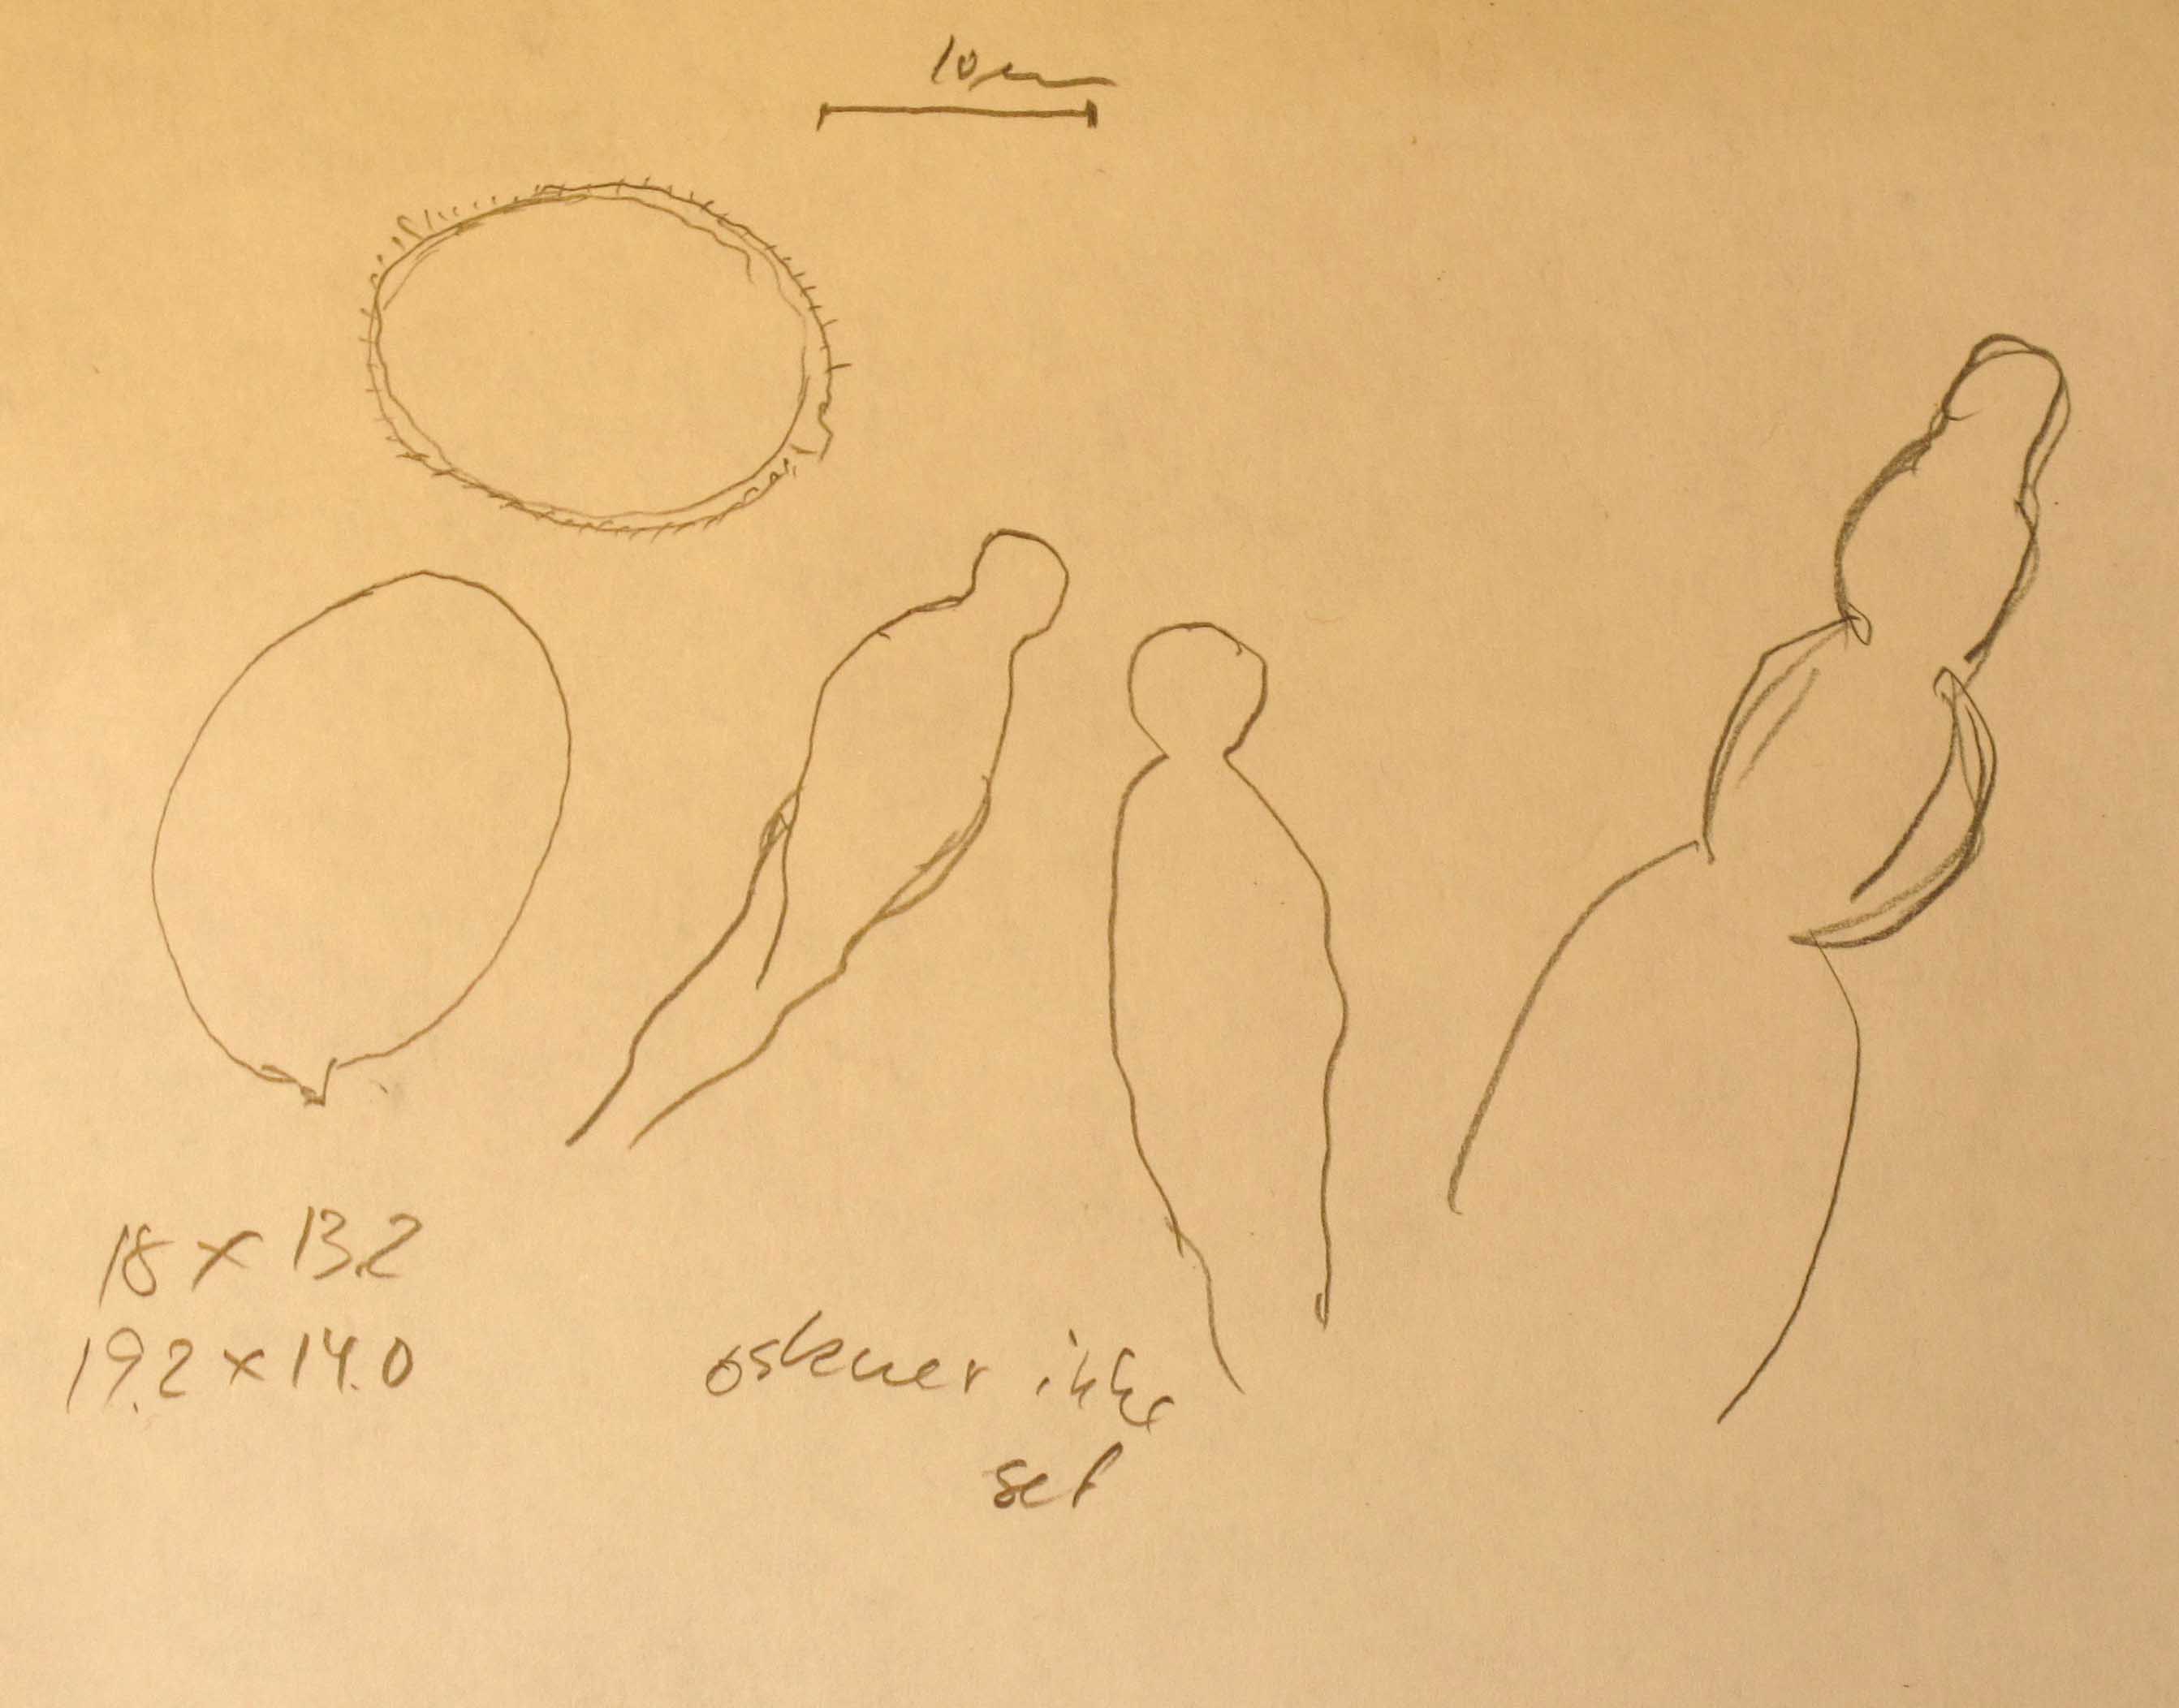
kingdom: Fungi
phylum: Basidiomycota
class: Agaricomycetes
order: Russulales
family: Stereaceae
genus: Aleurodiscus
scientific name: Aleurodiscus aurantius
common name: brombær-skiveskorpe
